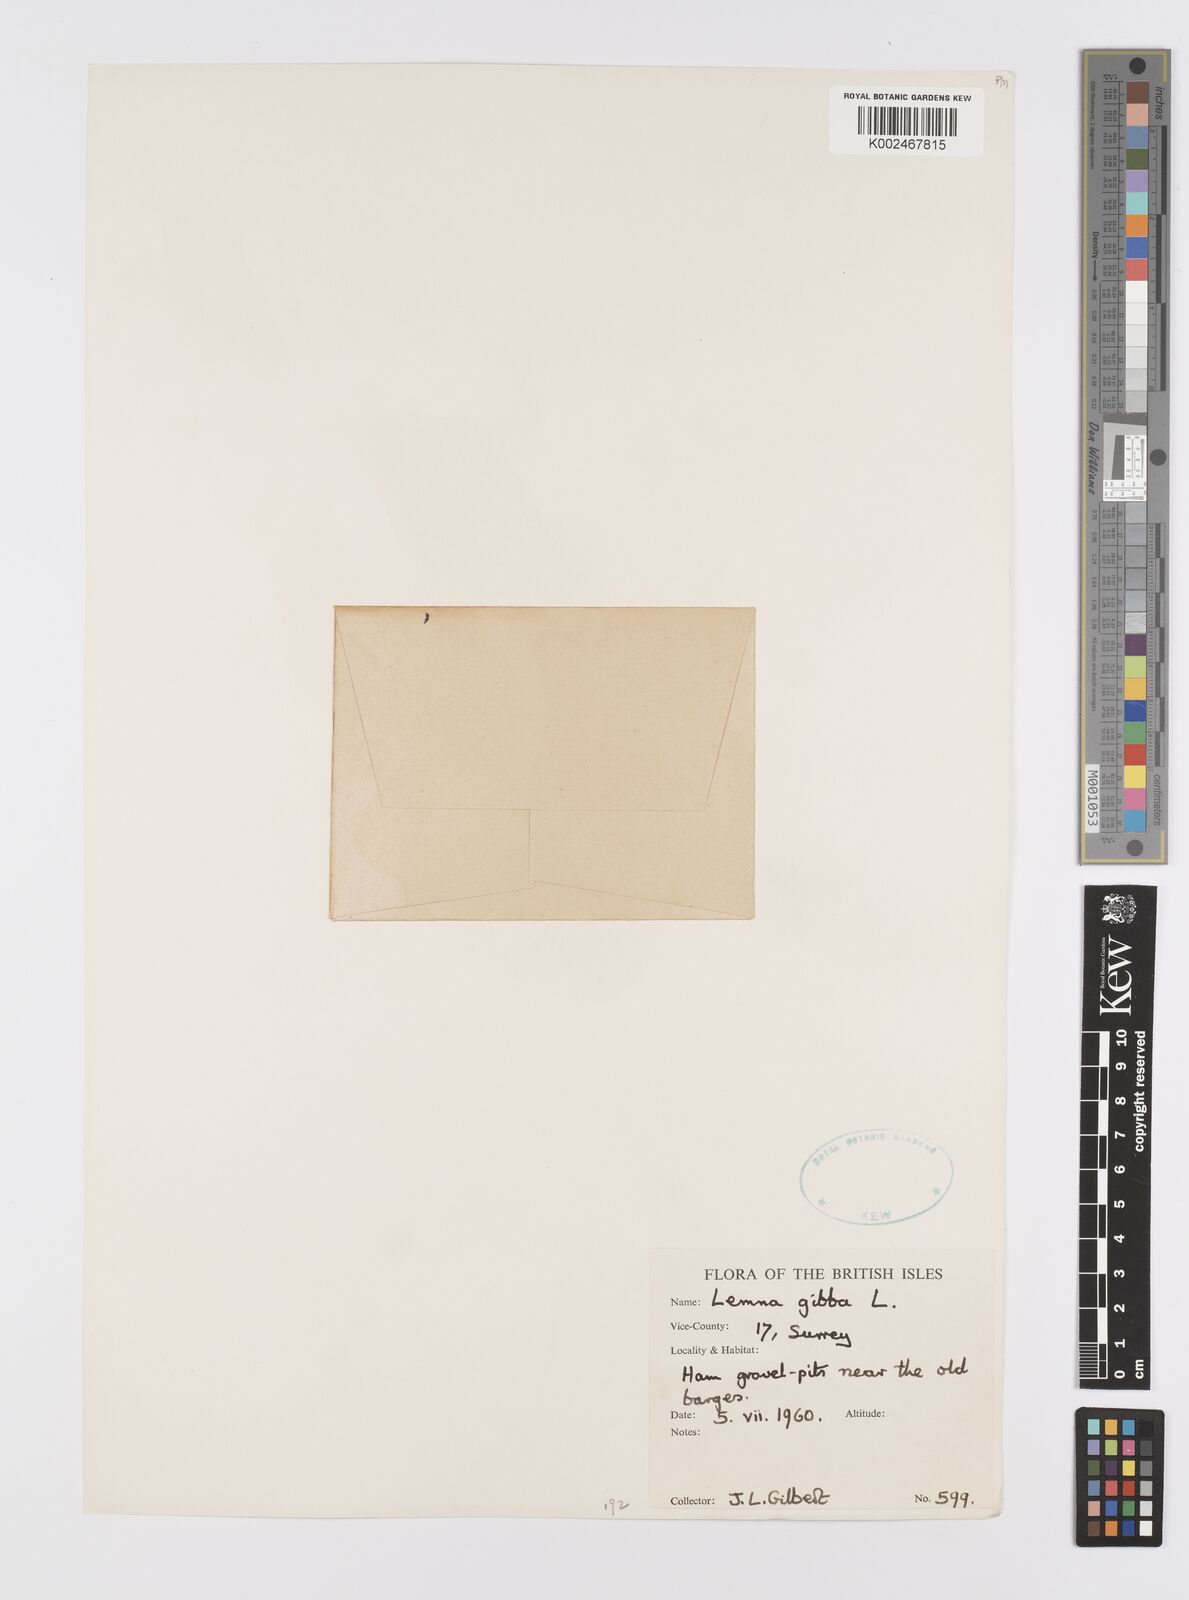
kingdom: Plantae
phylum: Tracheophyta
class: Liliopsida
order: Alismatales
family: Araceae
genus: Lemna
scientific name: Lemna gibba
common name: Fat duckweed
